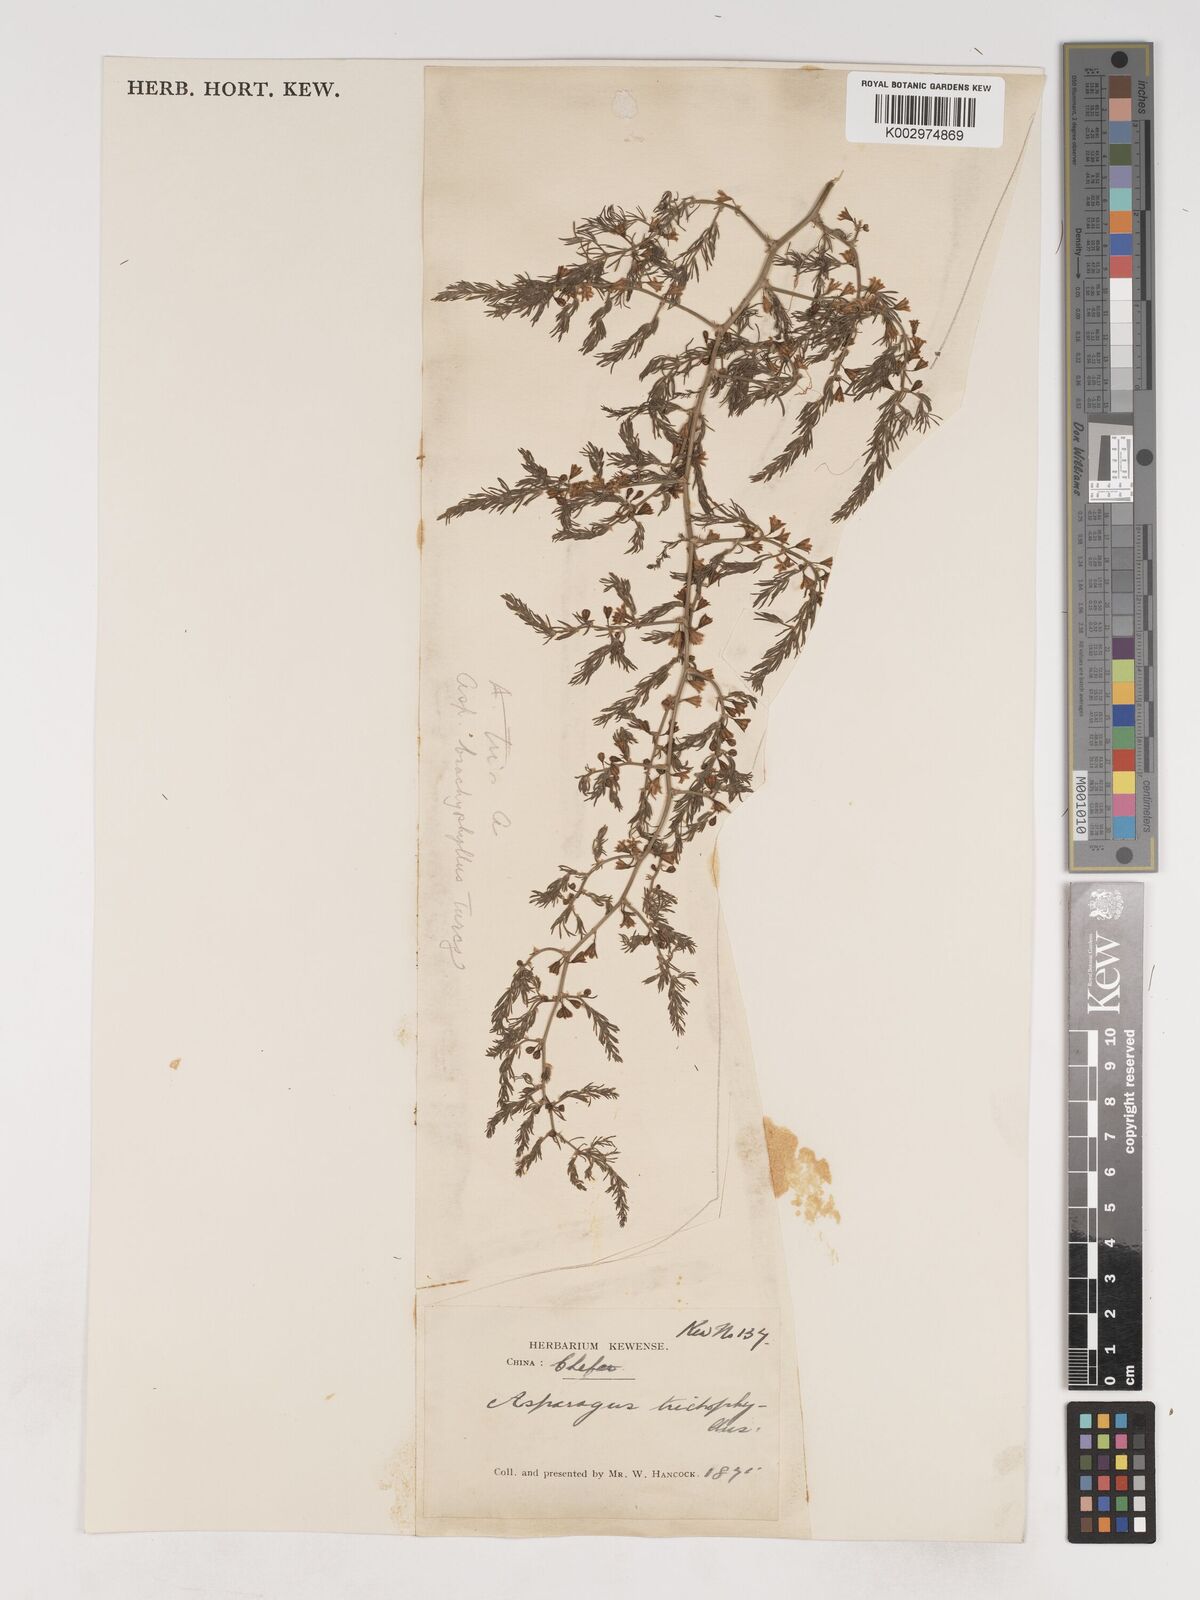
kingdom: Plantae
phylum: Tracheophyta
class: Liliopsida
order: Asparagales
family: Asparagaceae
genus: Asparagus
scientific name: Asparagus trichophyllus
